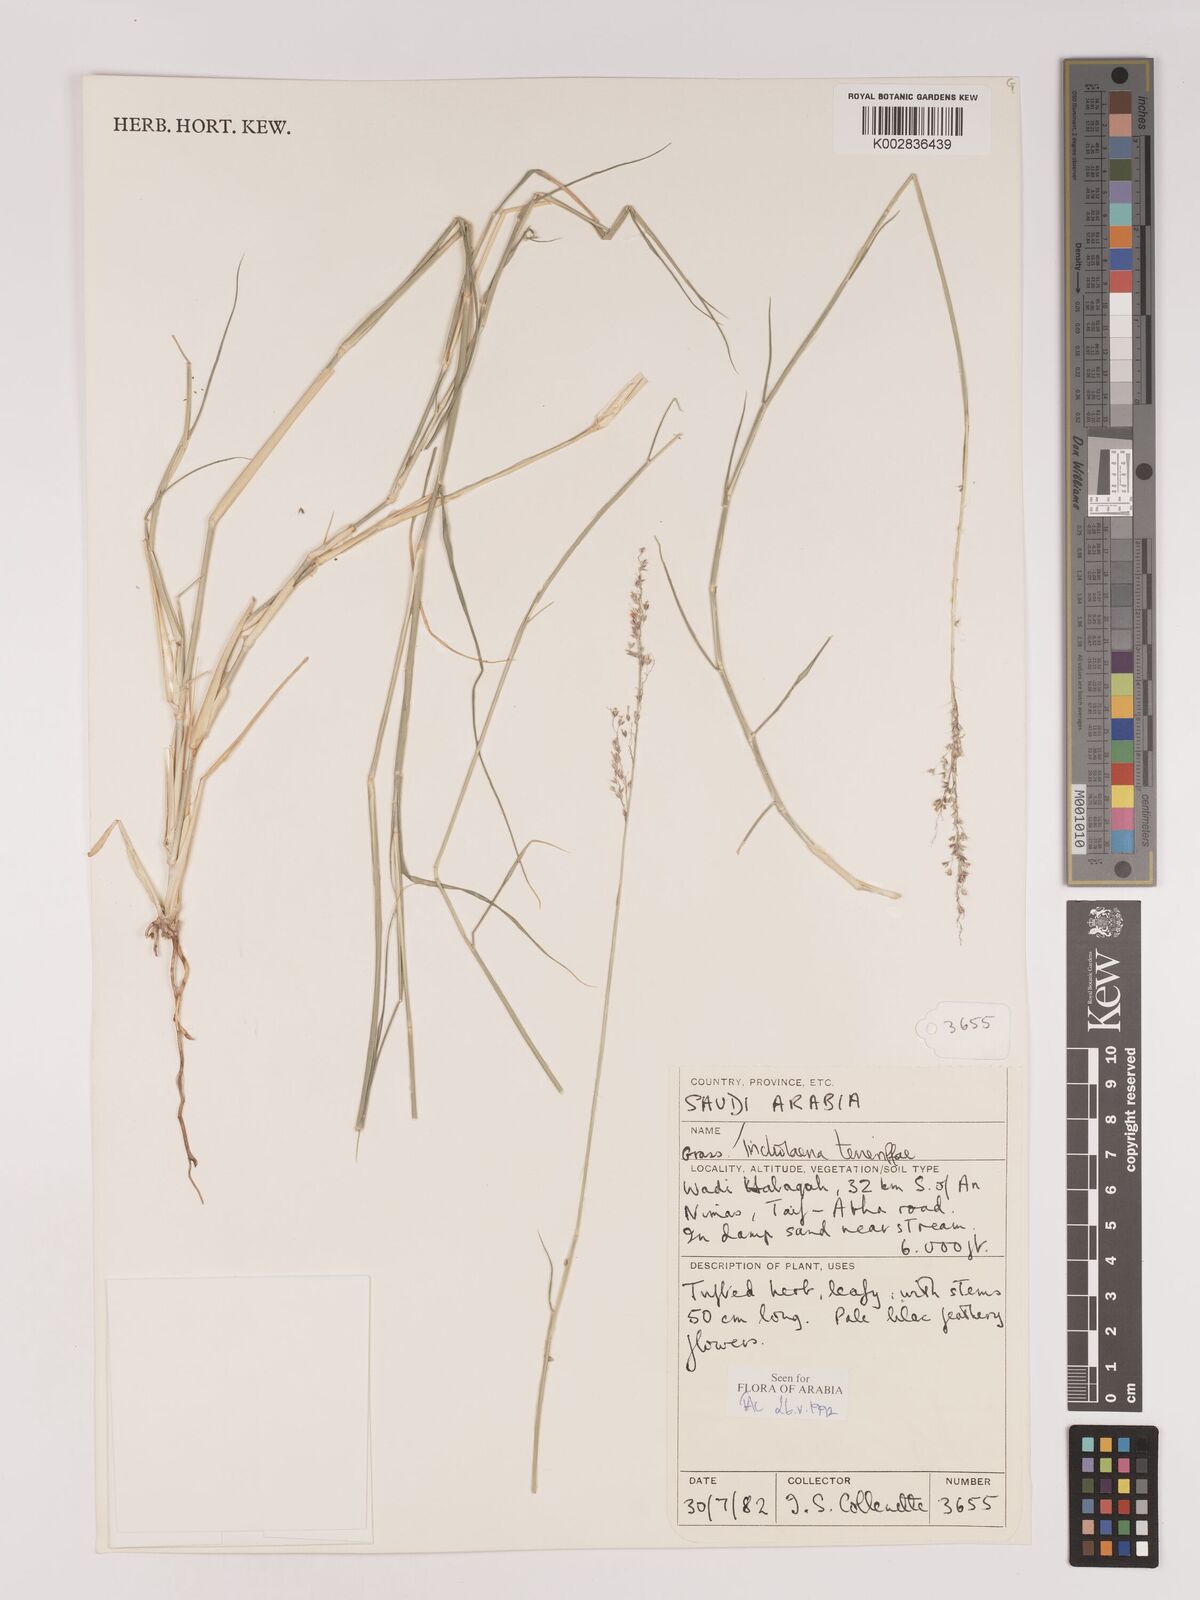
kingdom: Plantae
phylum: Tracheophyta
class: Liliopsida
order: Poales
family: Poaceae
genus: Tricholaena
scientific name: Tricholaena teneriffae
